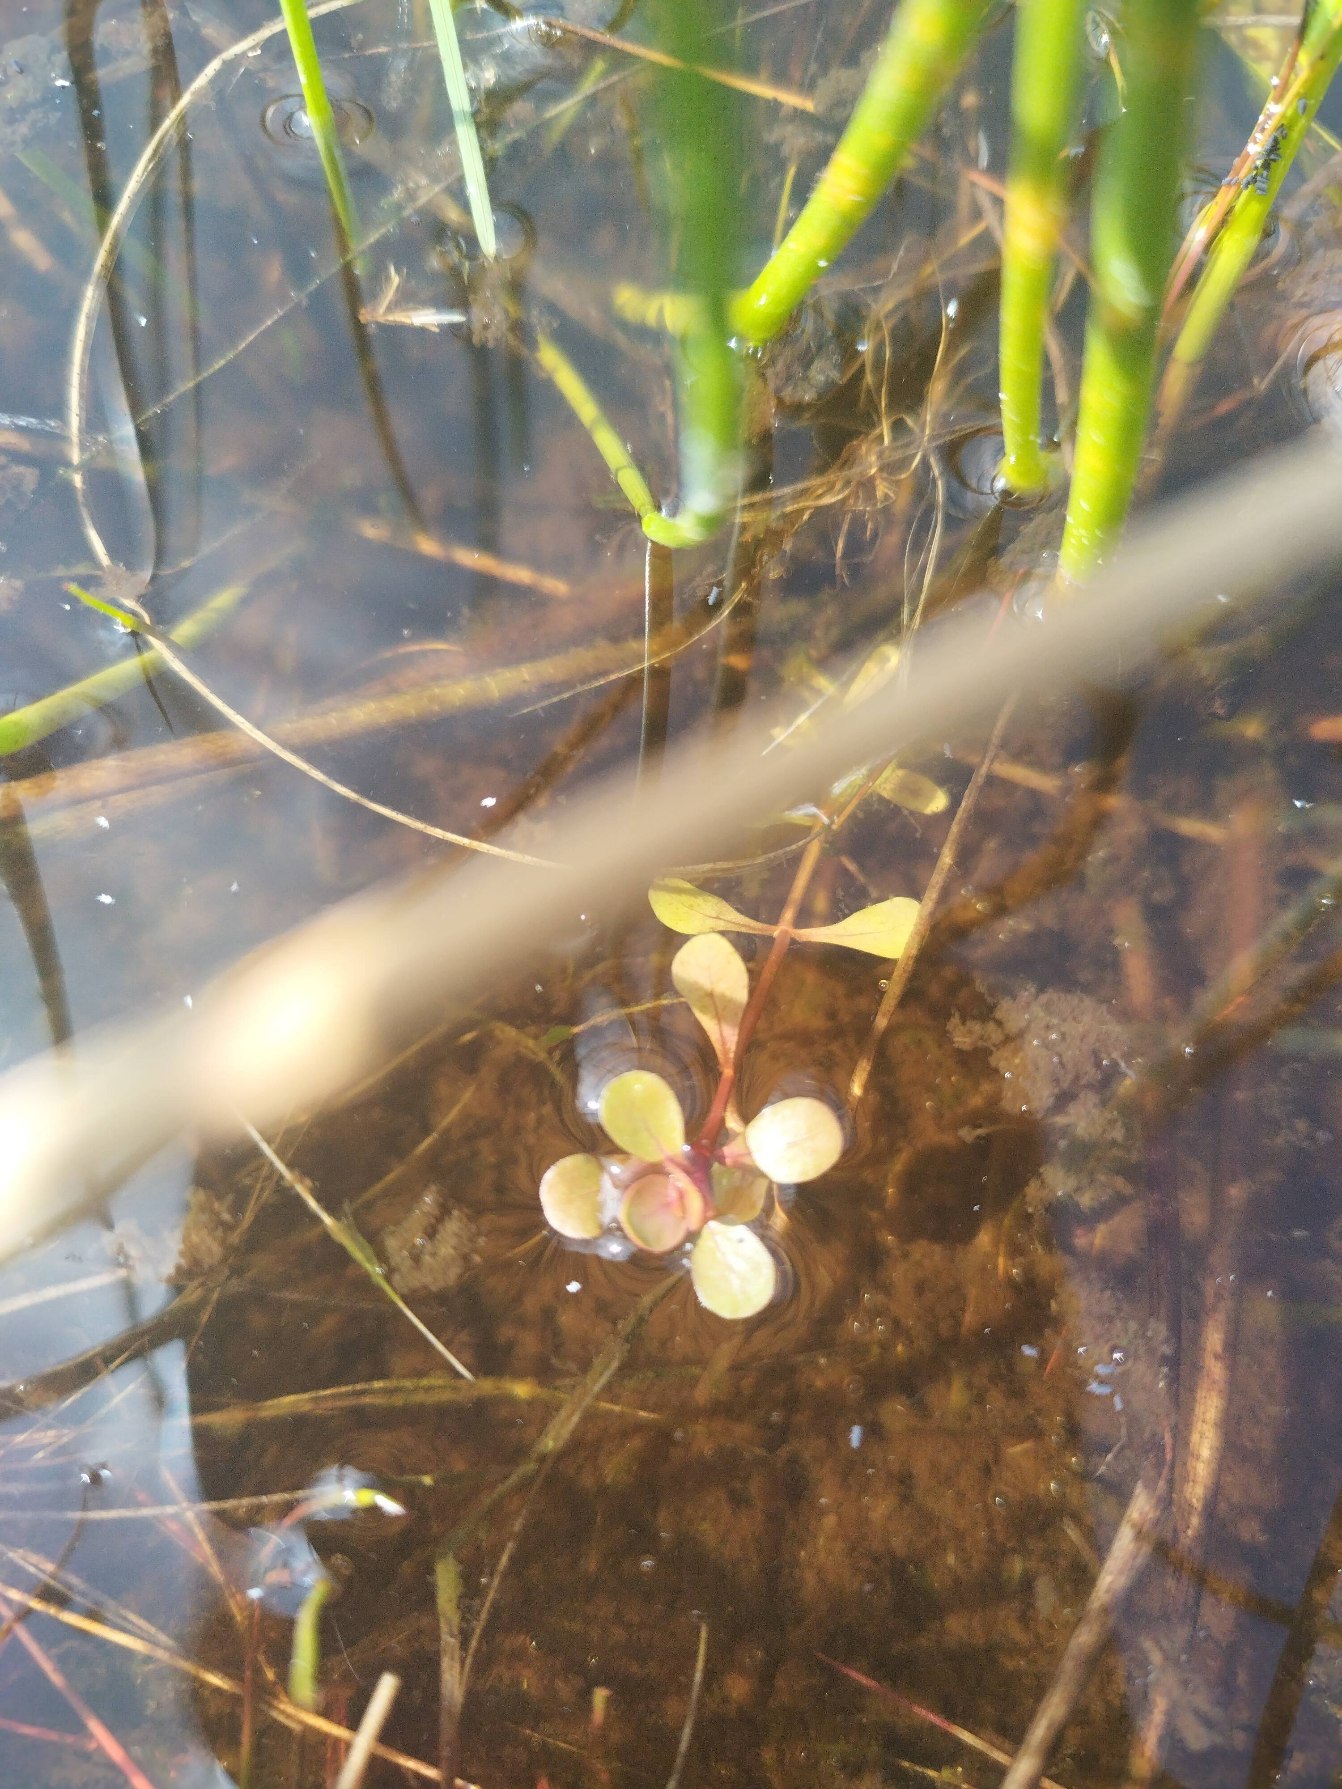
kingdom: Plantae
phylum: Tracheophyta
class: Magnoliopsida
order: Myrtales
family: Lythraceae
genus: Lythrum
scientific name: Lythrum portula
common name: Vandportulak
